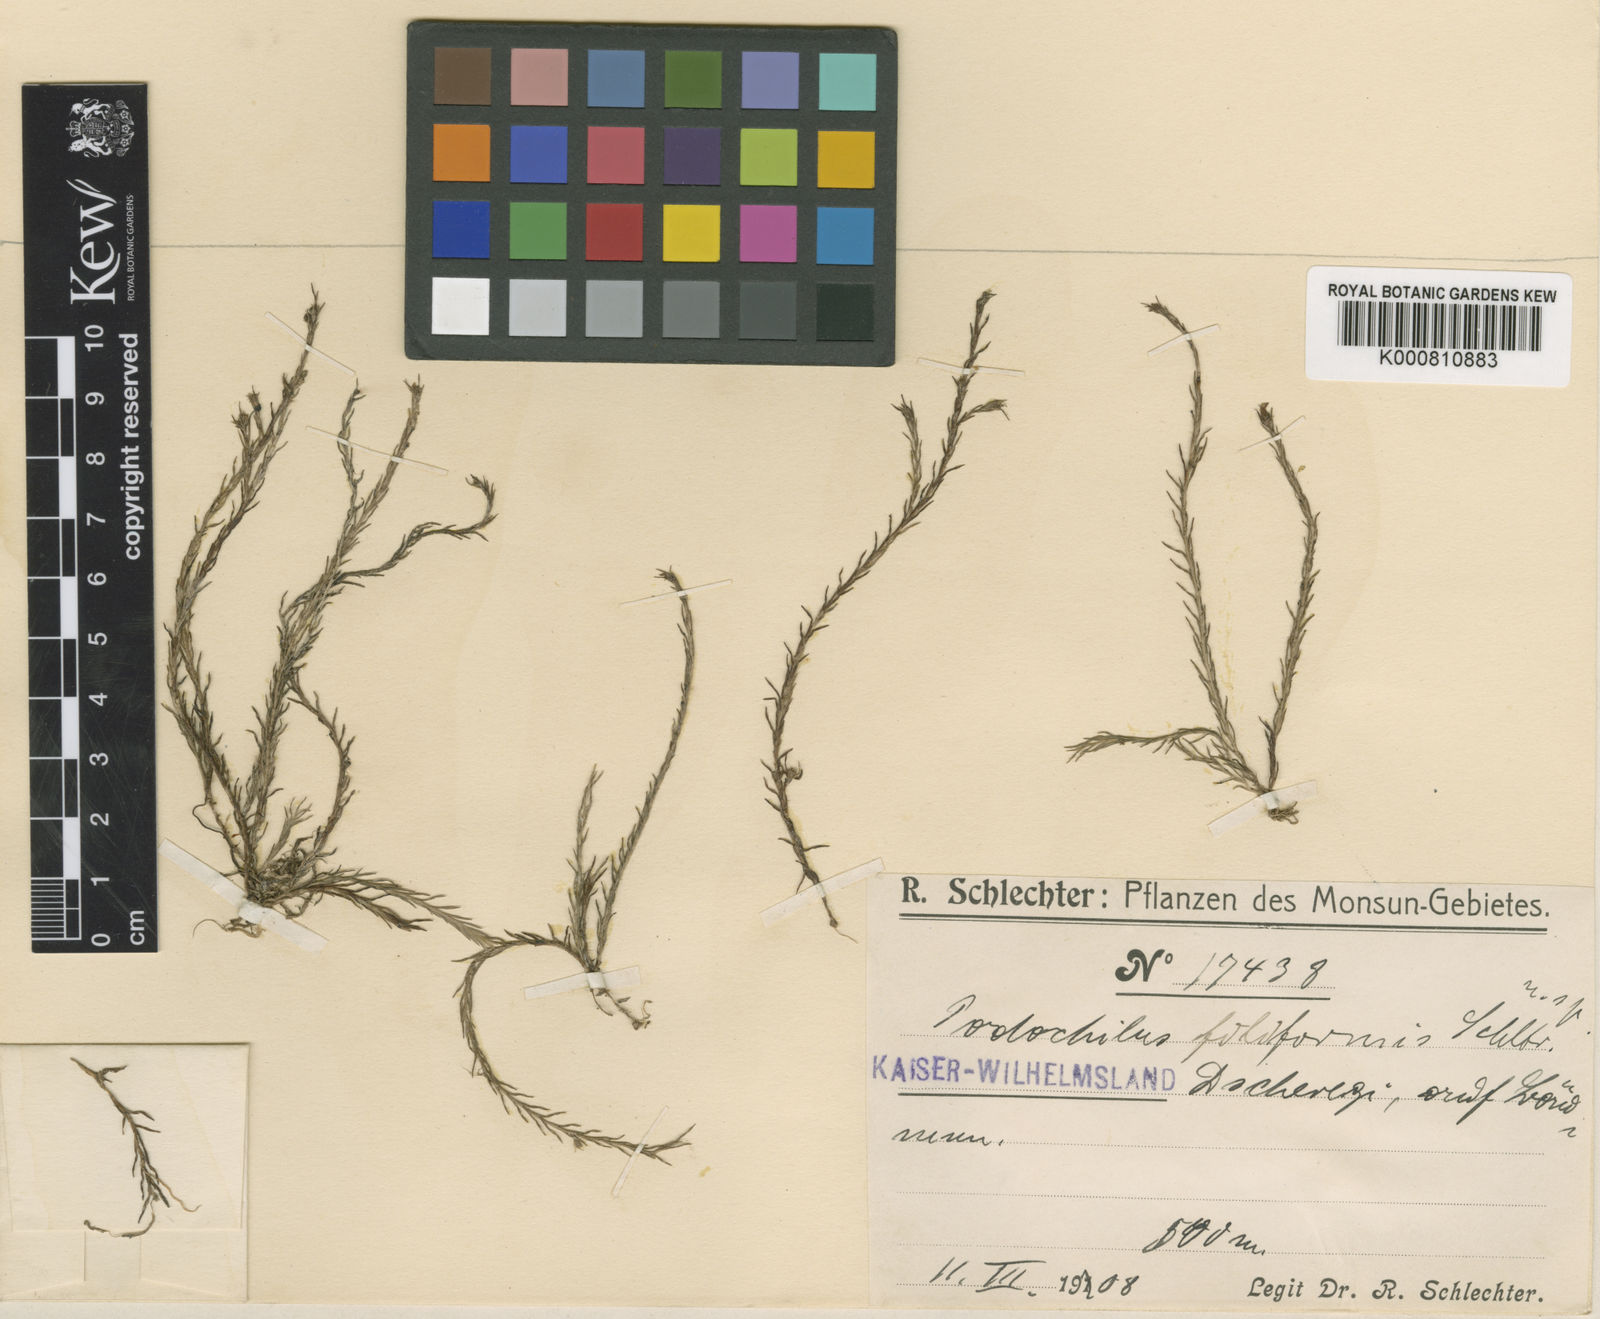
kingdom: Plantae
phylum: Tracheophyta
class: Liliopsida
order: Asparagales
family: Orchidaceae
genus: Podochilus
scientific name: Podochilus filiformis
